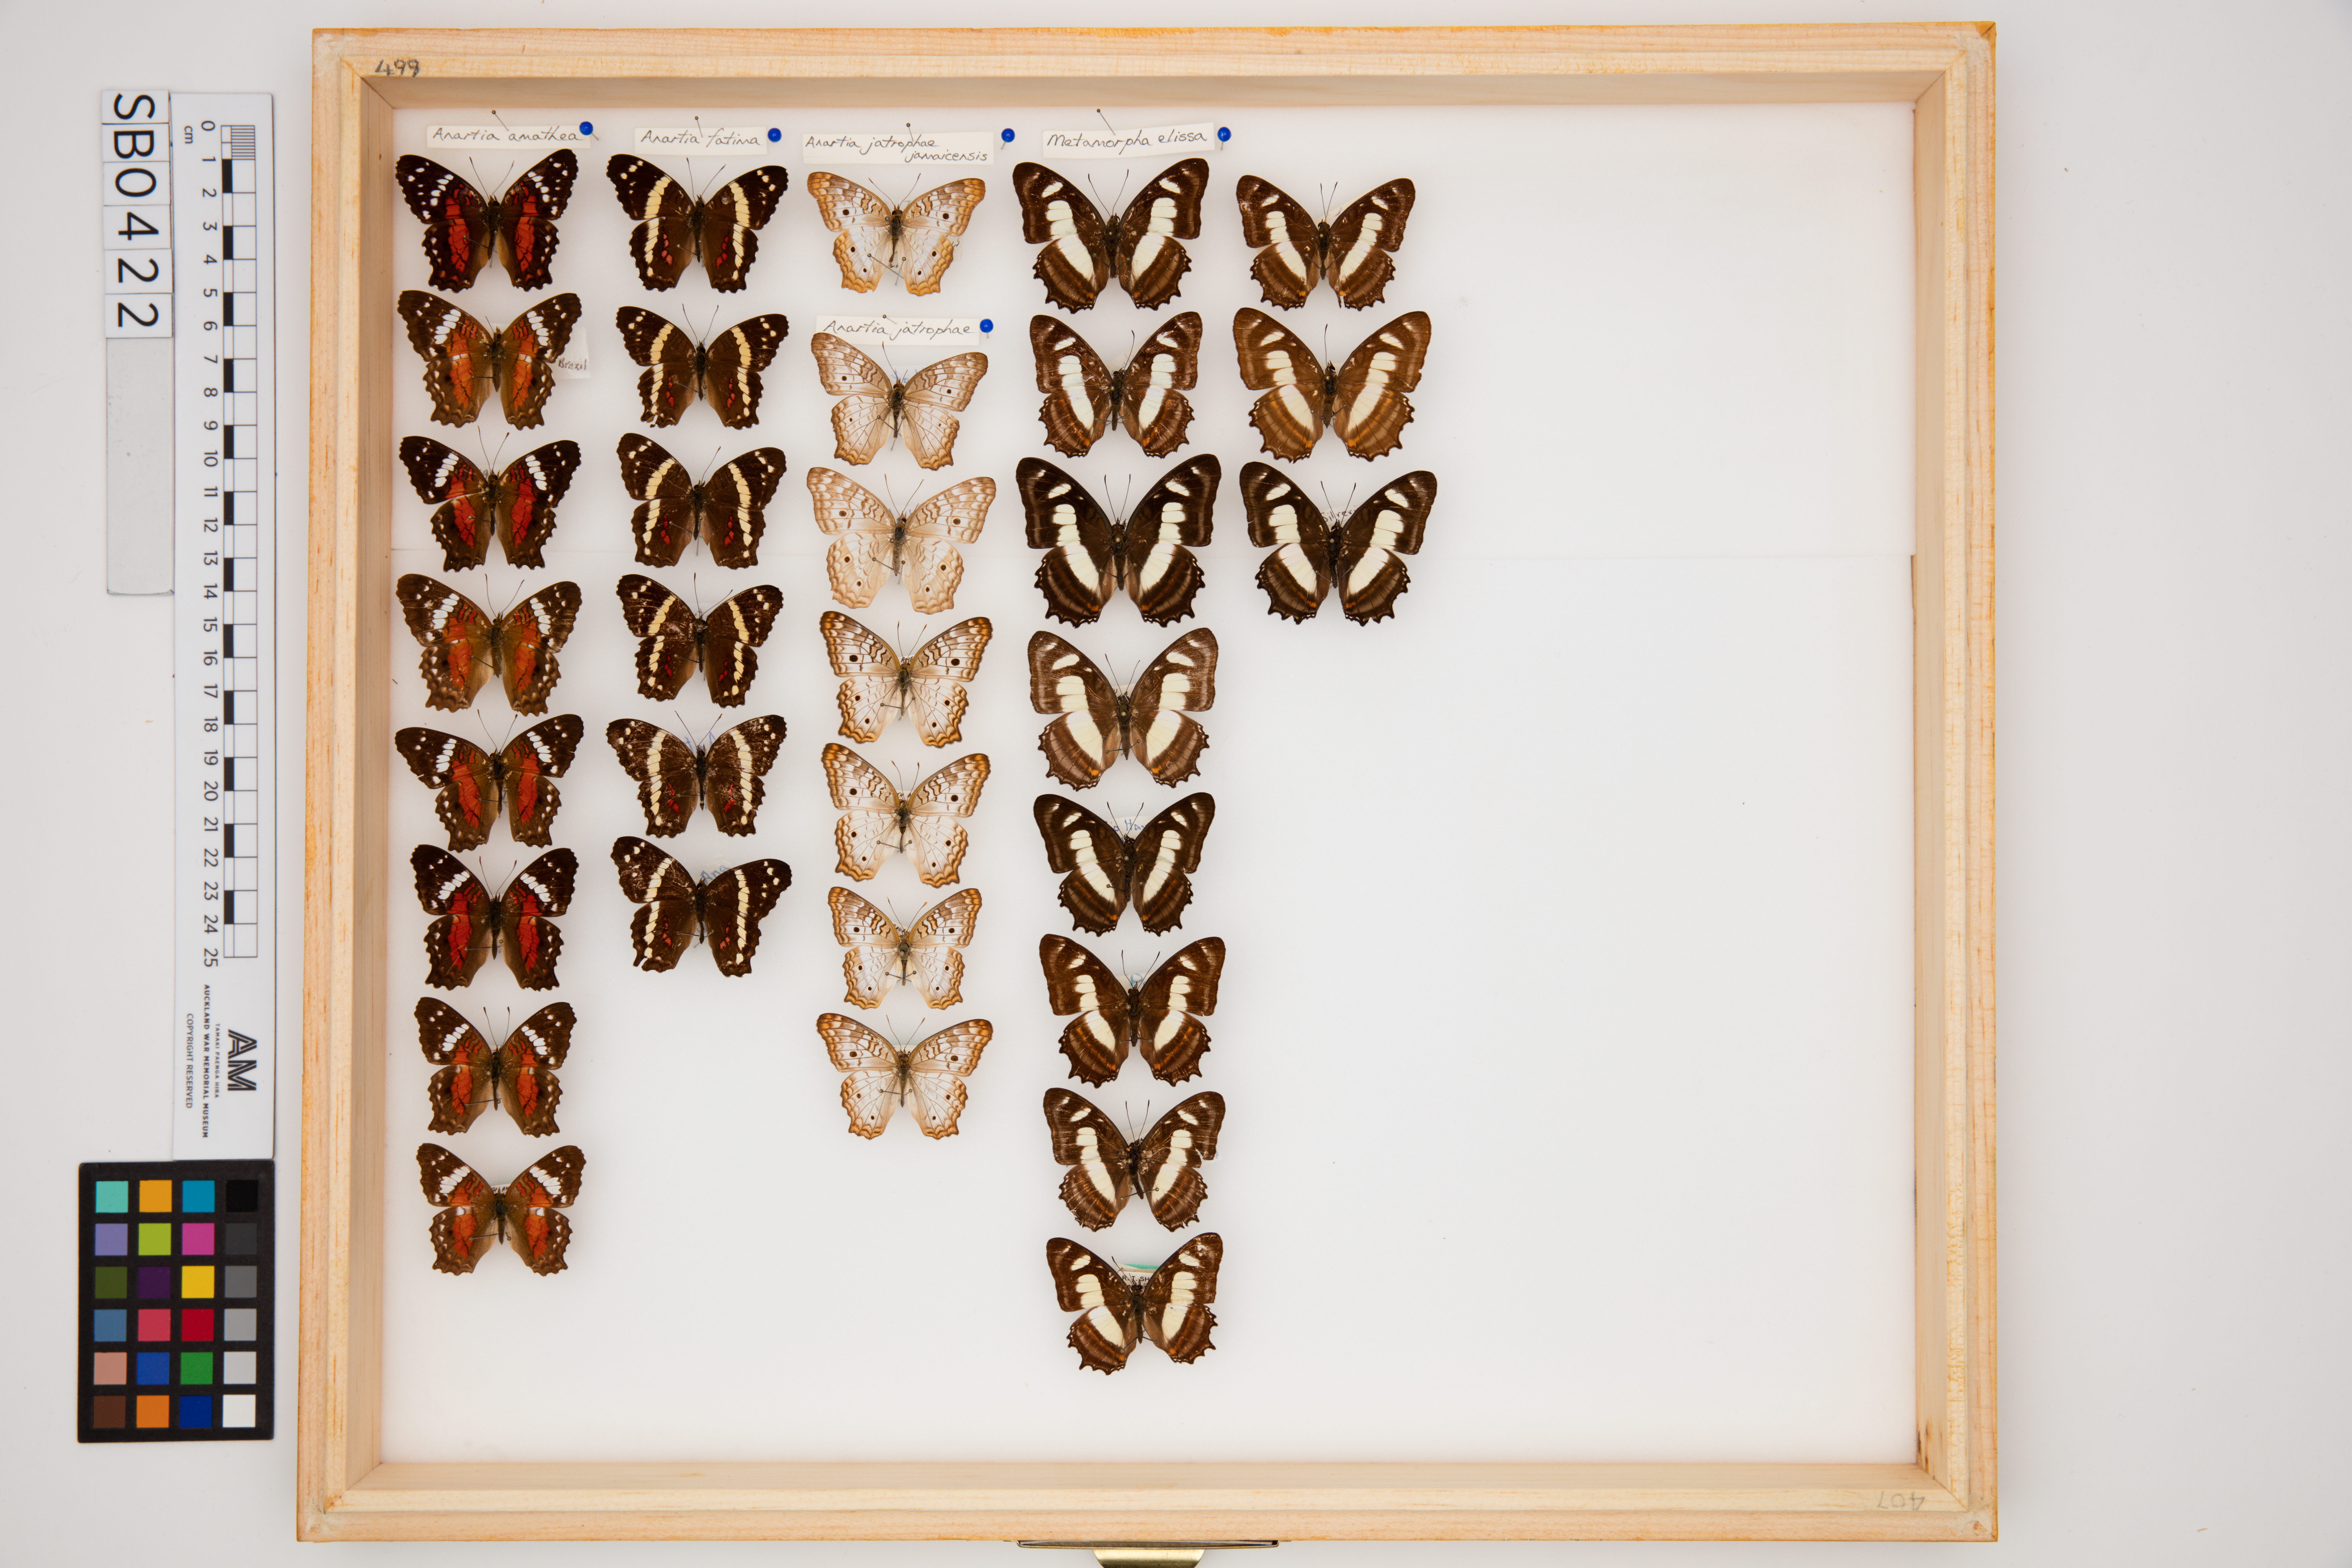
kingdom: Animalia
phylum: Arthropoda
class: Insecta
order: Lepidoptera
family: Nymphalidae
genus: Anartia
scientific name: Anartia fatima
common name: Banded peacock
